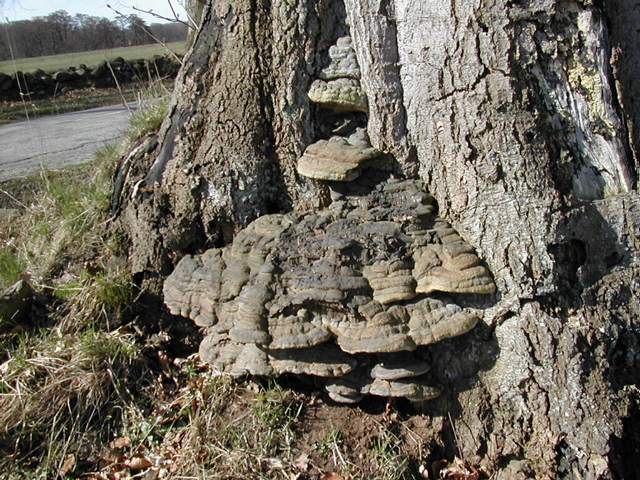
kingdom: Fungi
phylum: Basidiomycota
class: Agaricomycetes
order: Polyporales
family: Polyporaceae
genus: Ganoderma
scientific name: Ganoderma pfeifferi
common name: kobberrød lakporesvamp
